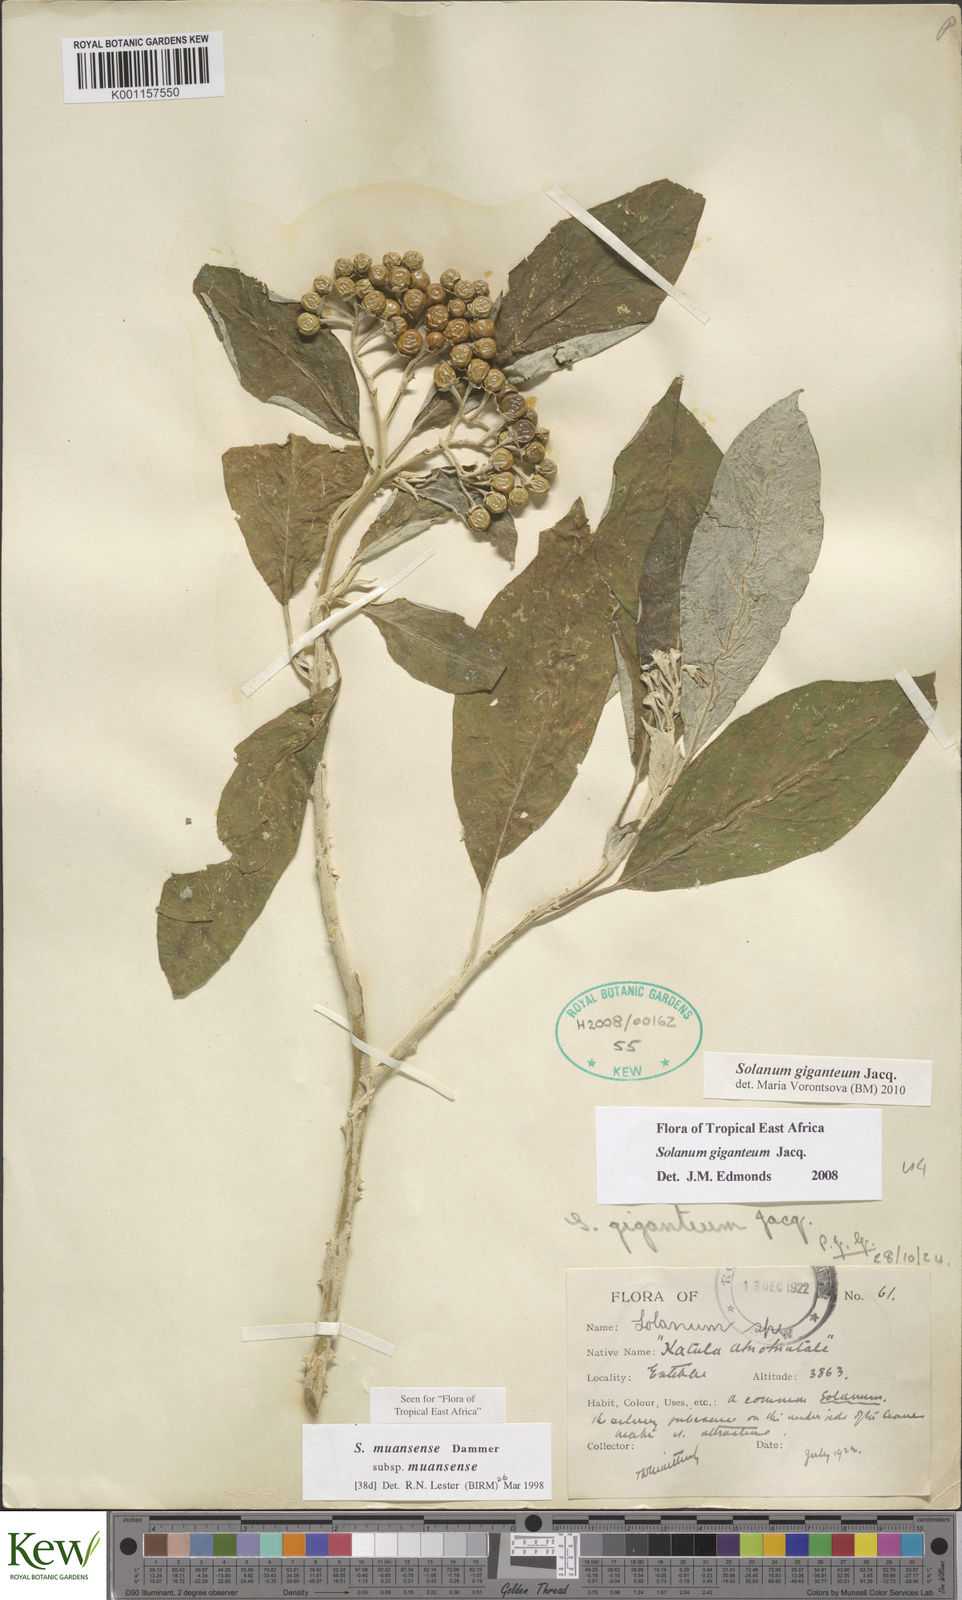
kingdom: Plantae
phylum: Tracheophyta
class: Magnoliopsida
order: Solanales
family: Solanaceae
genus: Solanum
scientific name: Solanum giganteum
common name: Healing-leaf-tree
